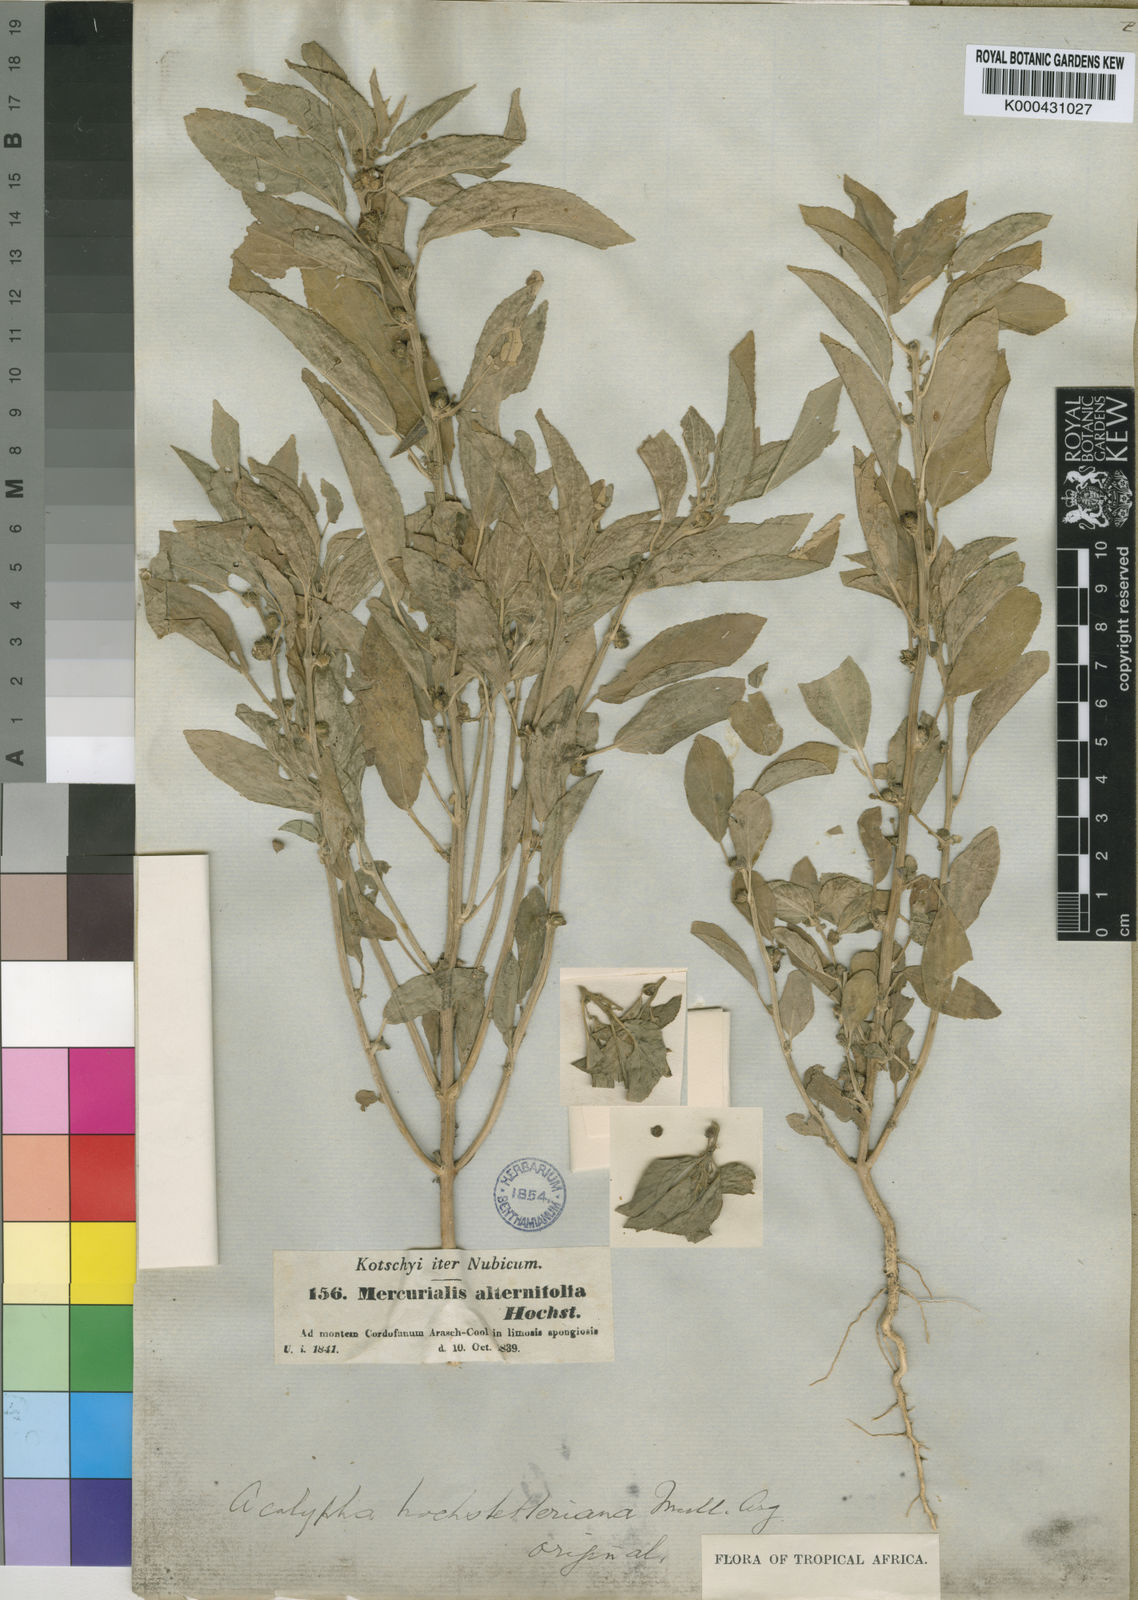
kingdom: Plantae
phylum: Tracheophyta
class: Magnoliopsida
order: Malpighiales
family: Euphorbiaceae
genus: Acalypha
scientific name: Acalypha
